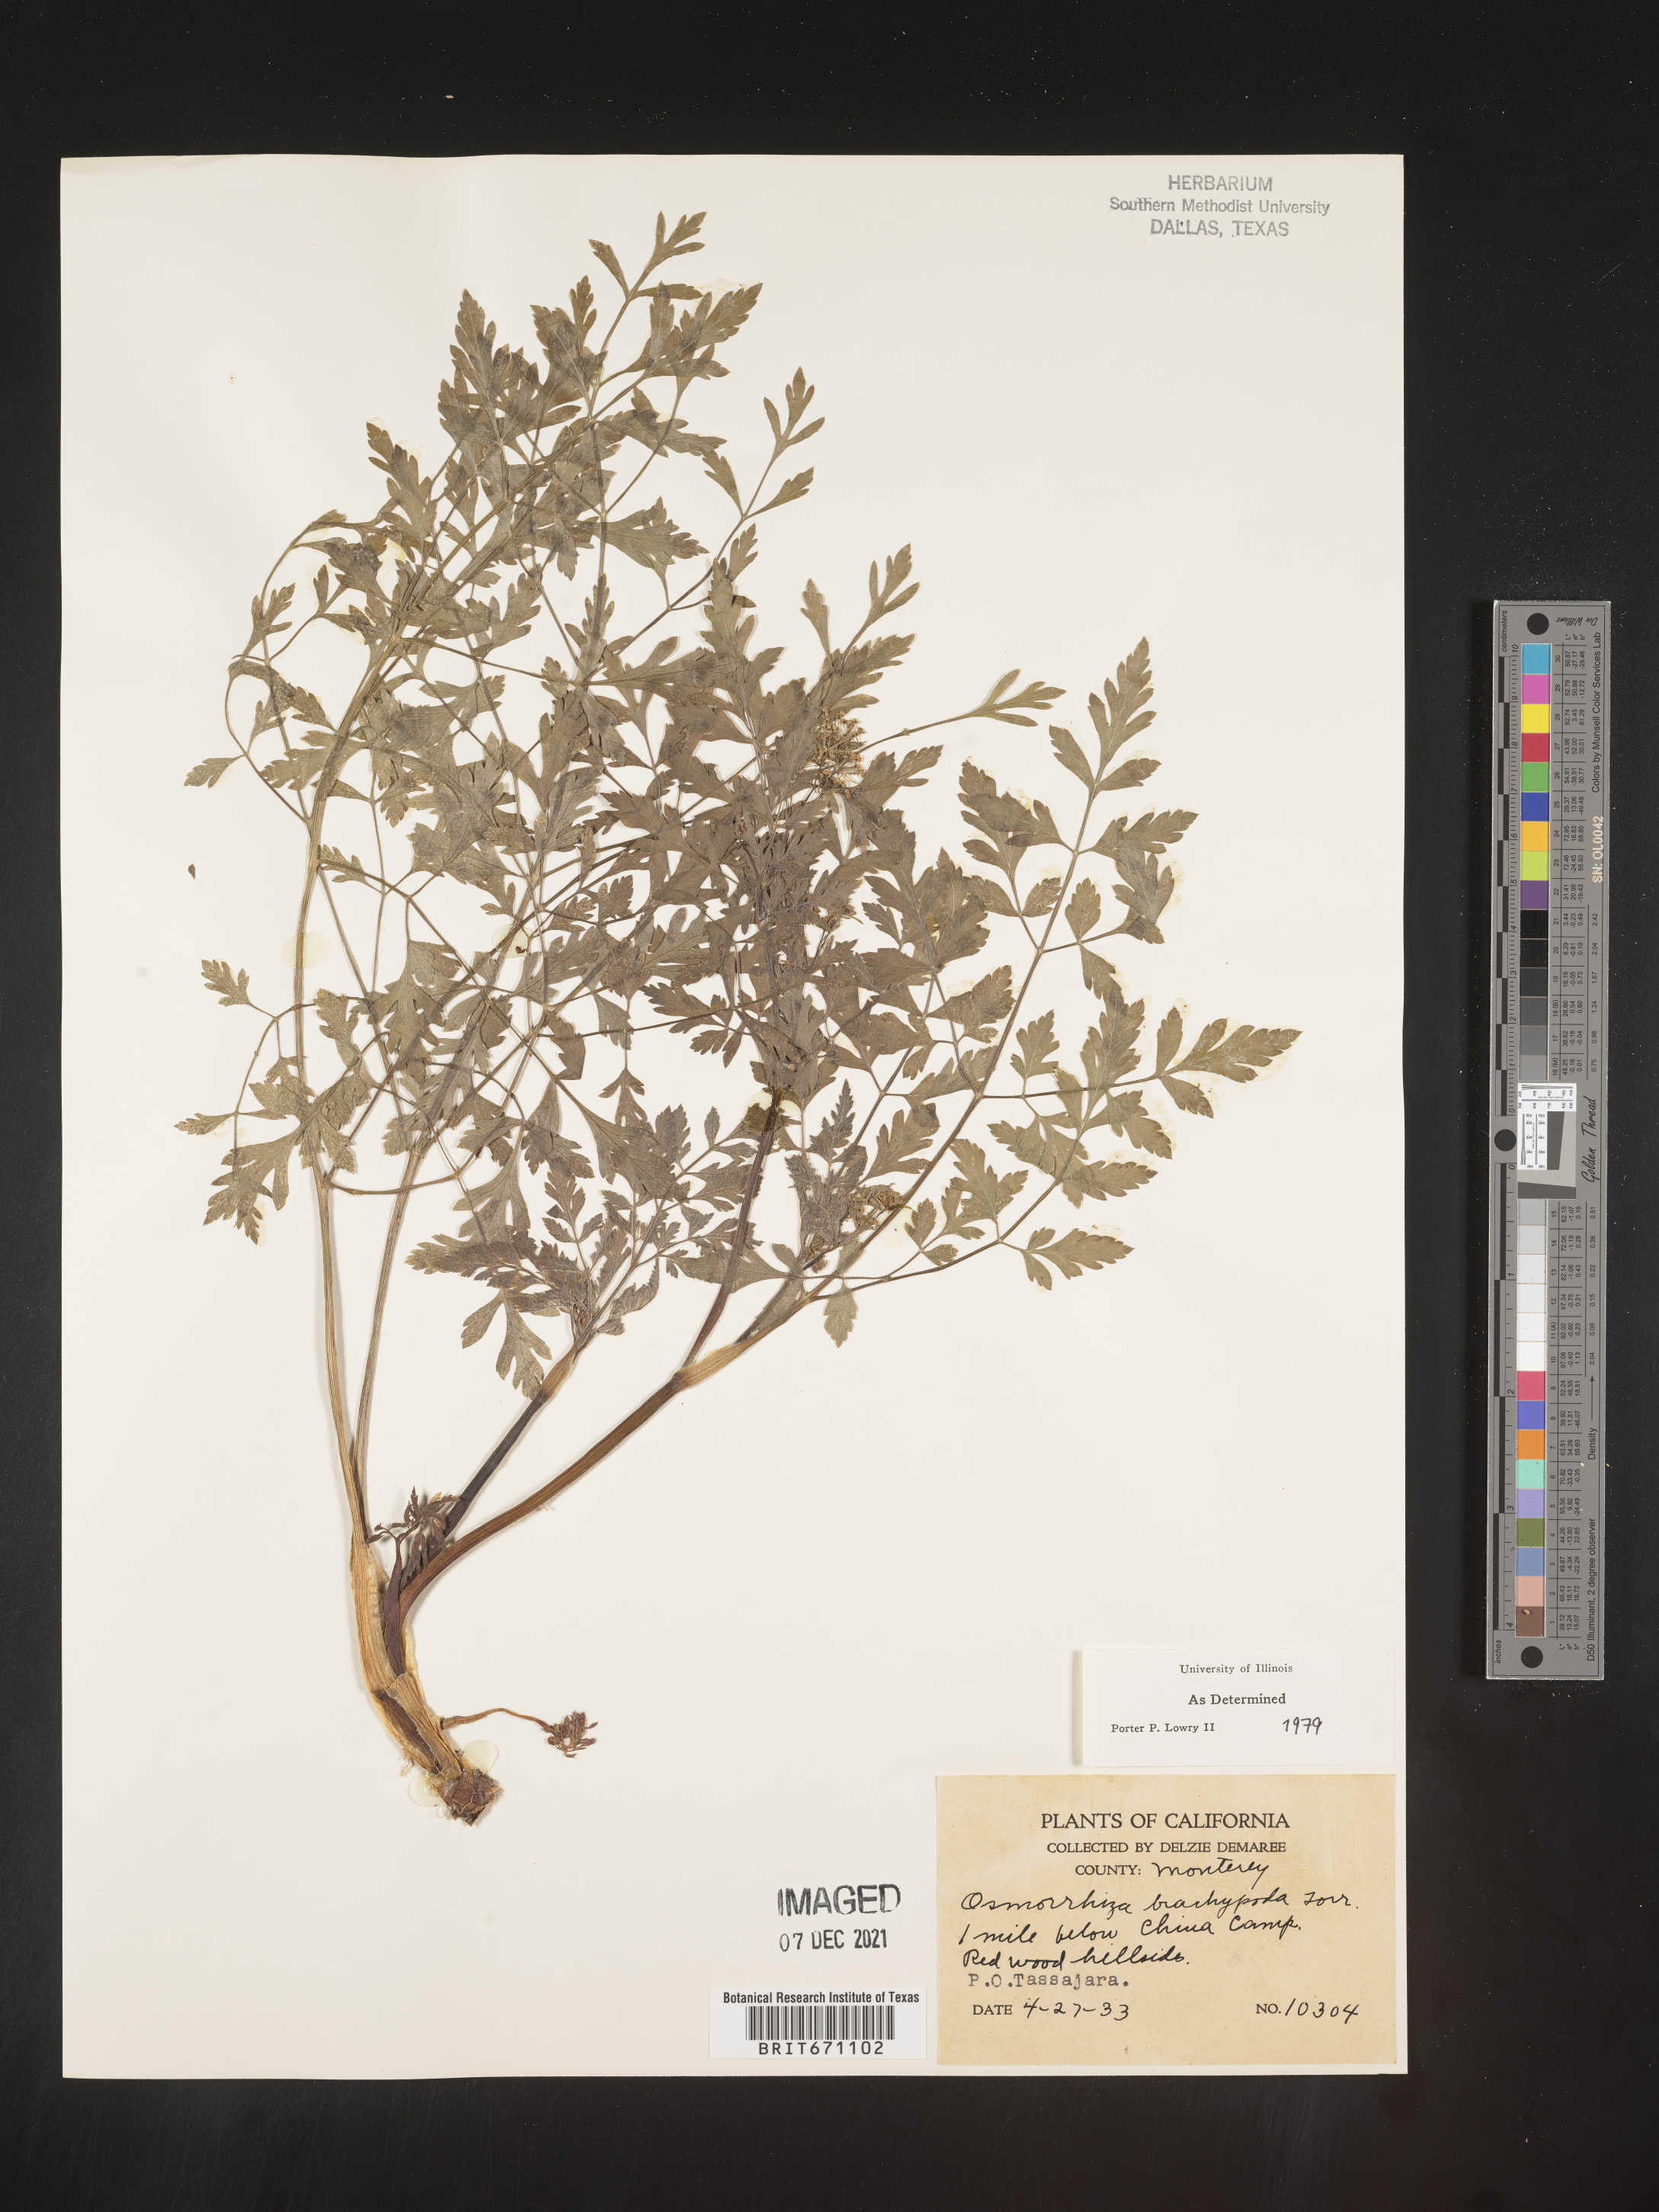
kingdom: Plantae
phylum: Tracheophyta
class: Magnoliopsida
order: Apiales
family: Apiaceae
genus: Osmorhiza
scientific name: Osmorhiza brachypoda
